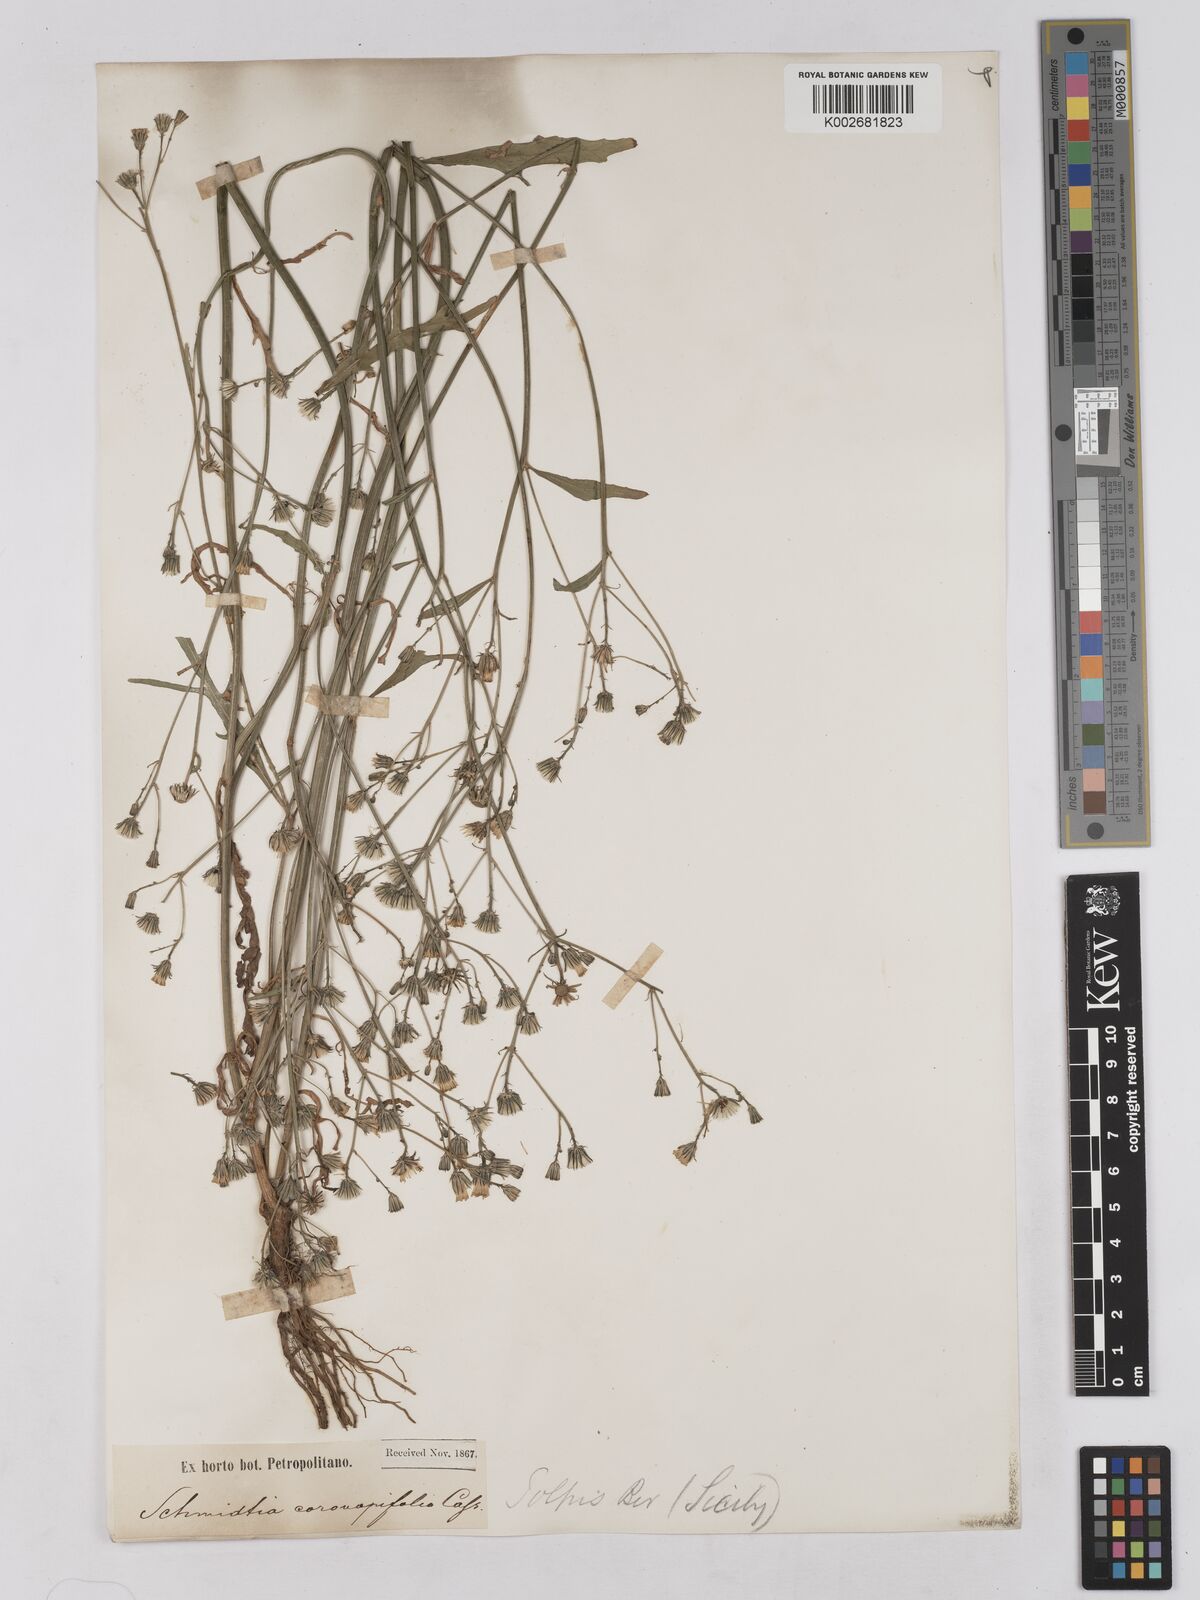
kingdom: Plantae
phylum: Tracheophyta
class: Magnoliopsida
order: Asterales
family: Asteraceae
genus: Tolpis
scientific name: Tolpis coronopifolia
